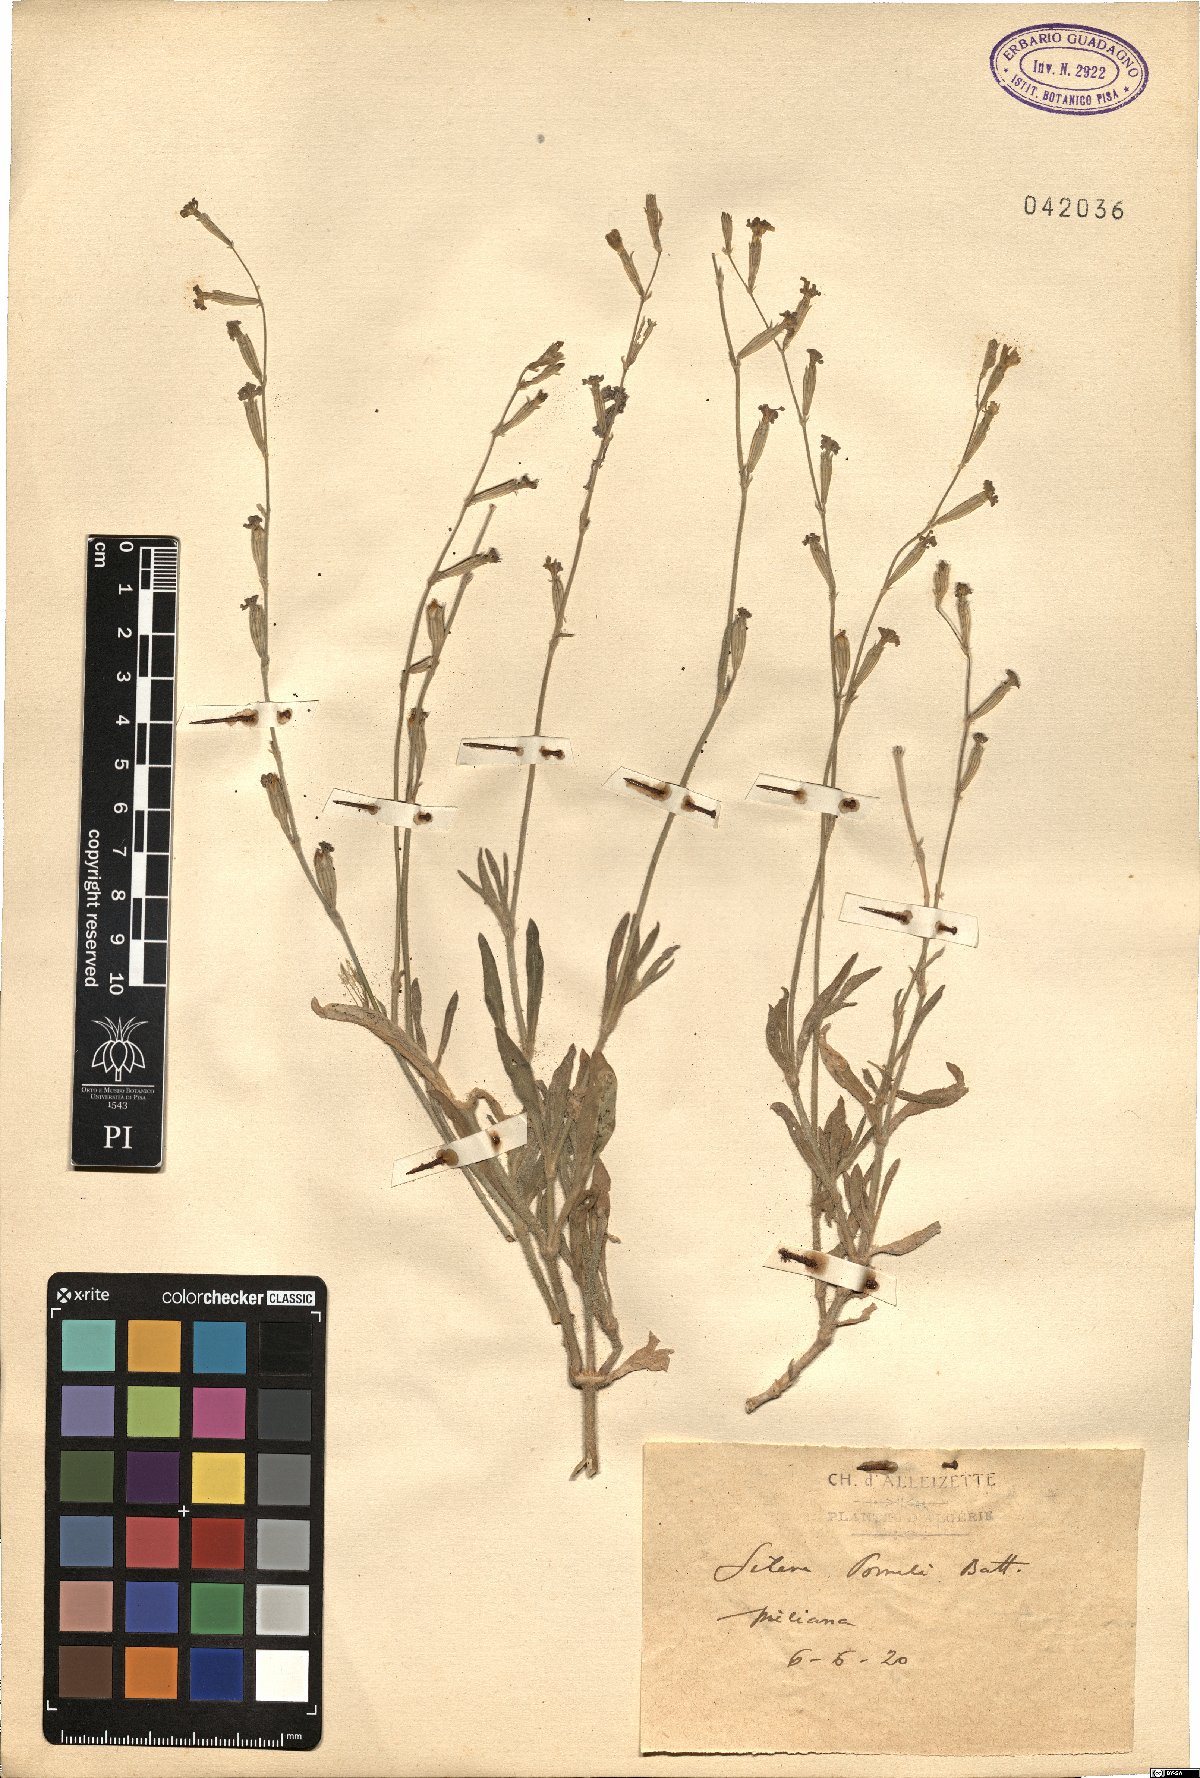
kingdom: Plantae
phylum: Tracheophyta
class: Magnoliopsida
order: Caryophyllales
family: Caryophyllaceae
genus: Silene
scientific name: Silene pomelii
